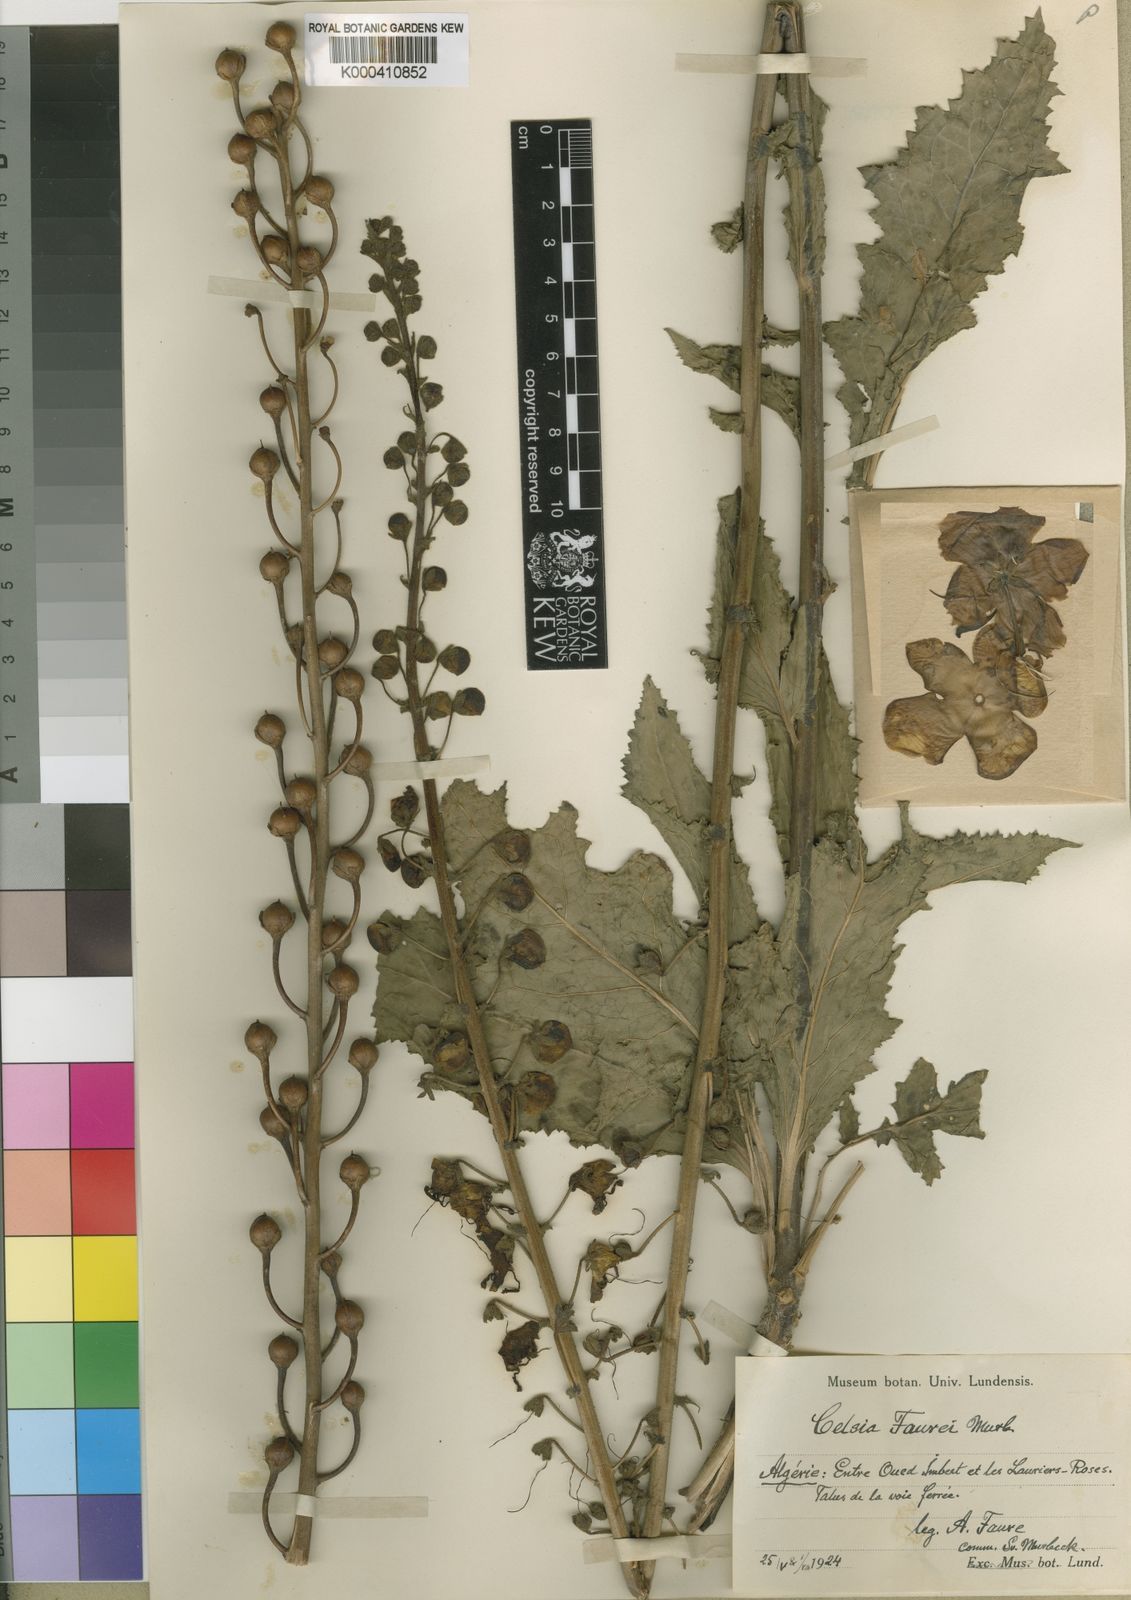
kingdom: Plantae
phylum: Tracheophyta
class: Magnoliopsida
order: Lamiales
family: Scrophulariaceae
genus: Verbascum
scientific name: Verbascum faurei
